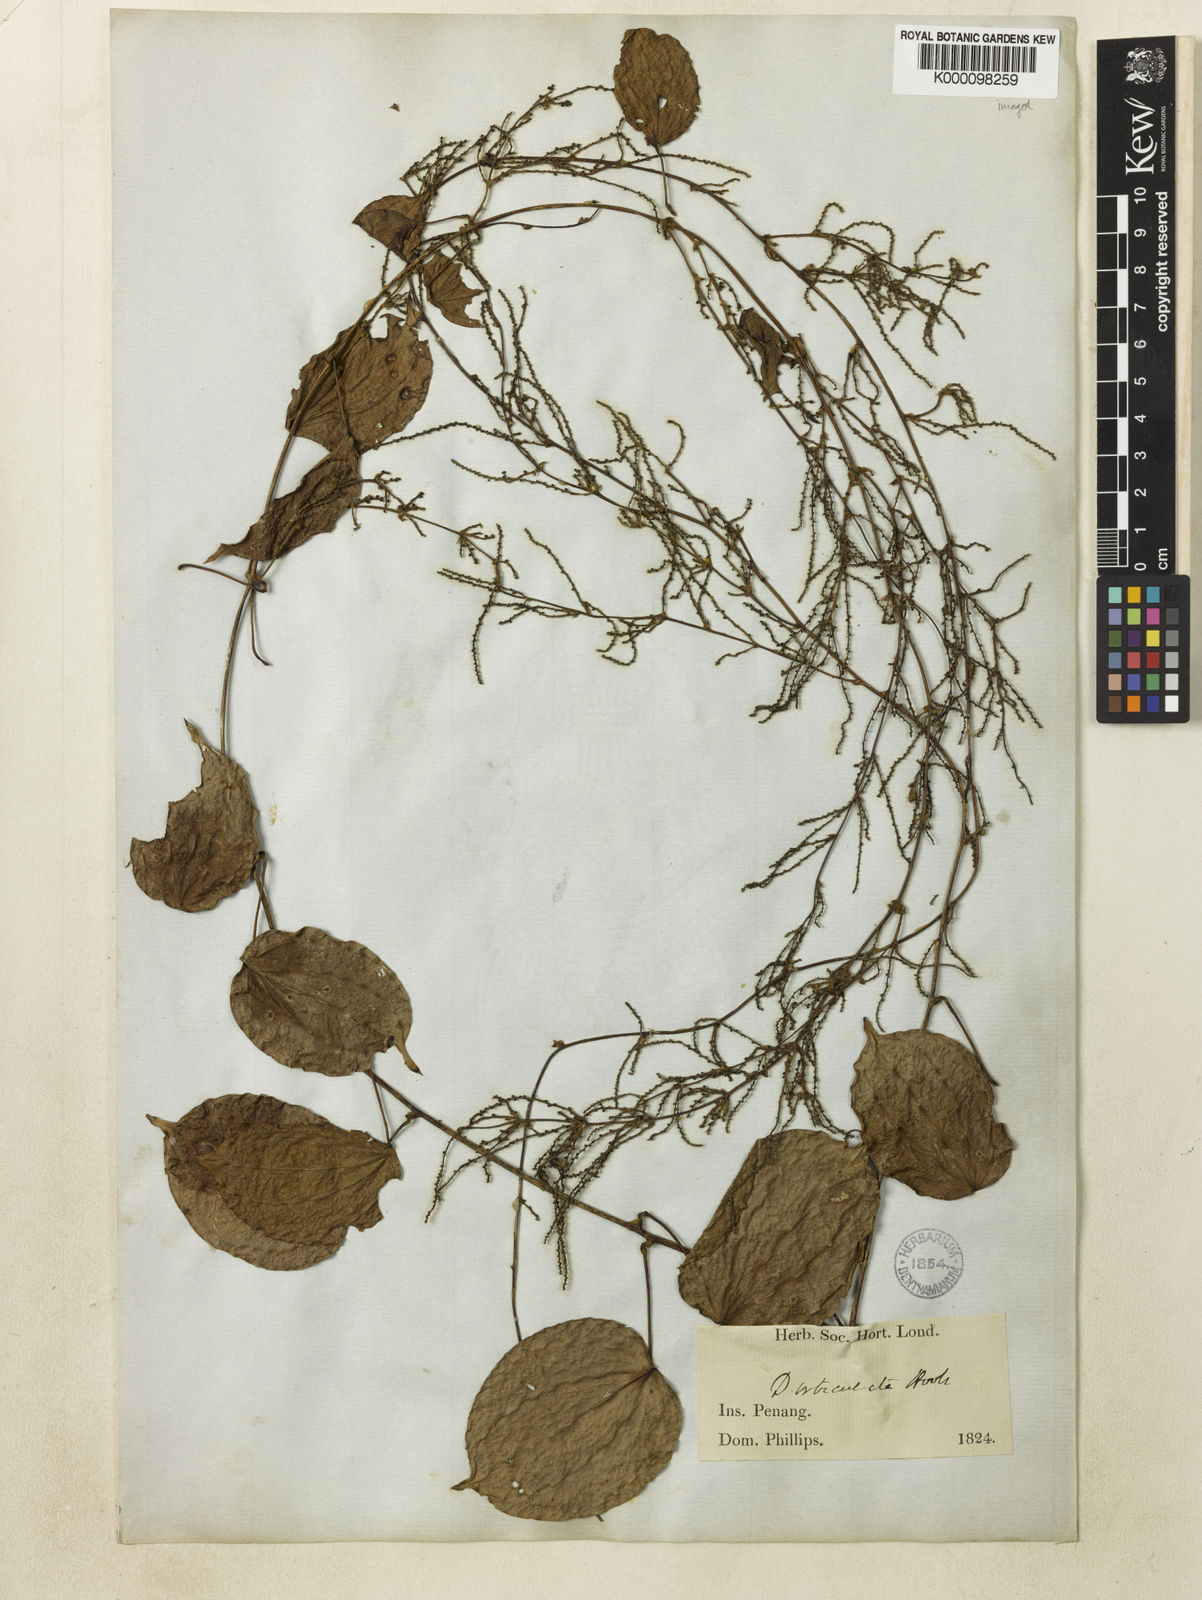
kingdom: Plantae
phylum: Tracheophyta
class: Liliopsida
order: Dioscoreales
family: Dioscoreaceae
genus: Dioscorea
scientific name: Dioscorea orbiculata
